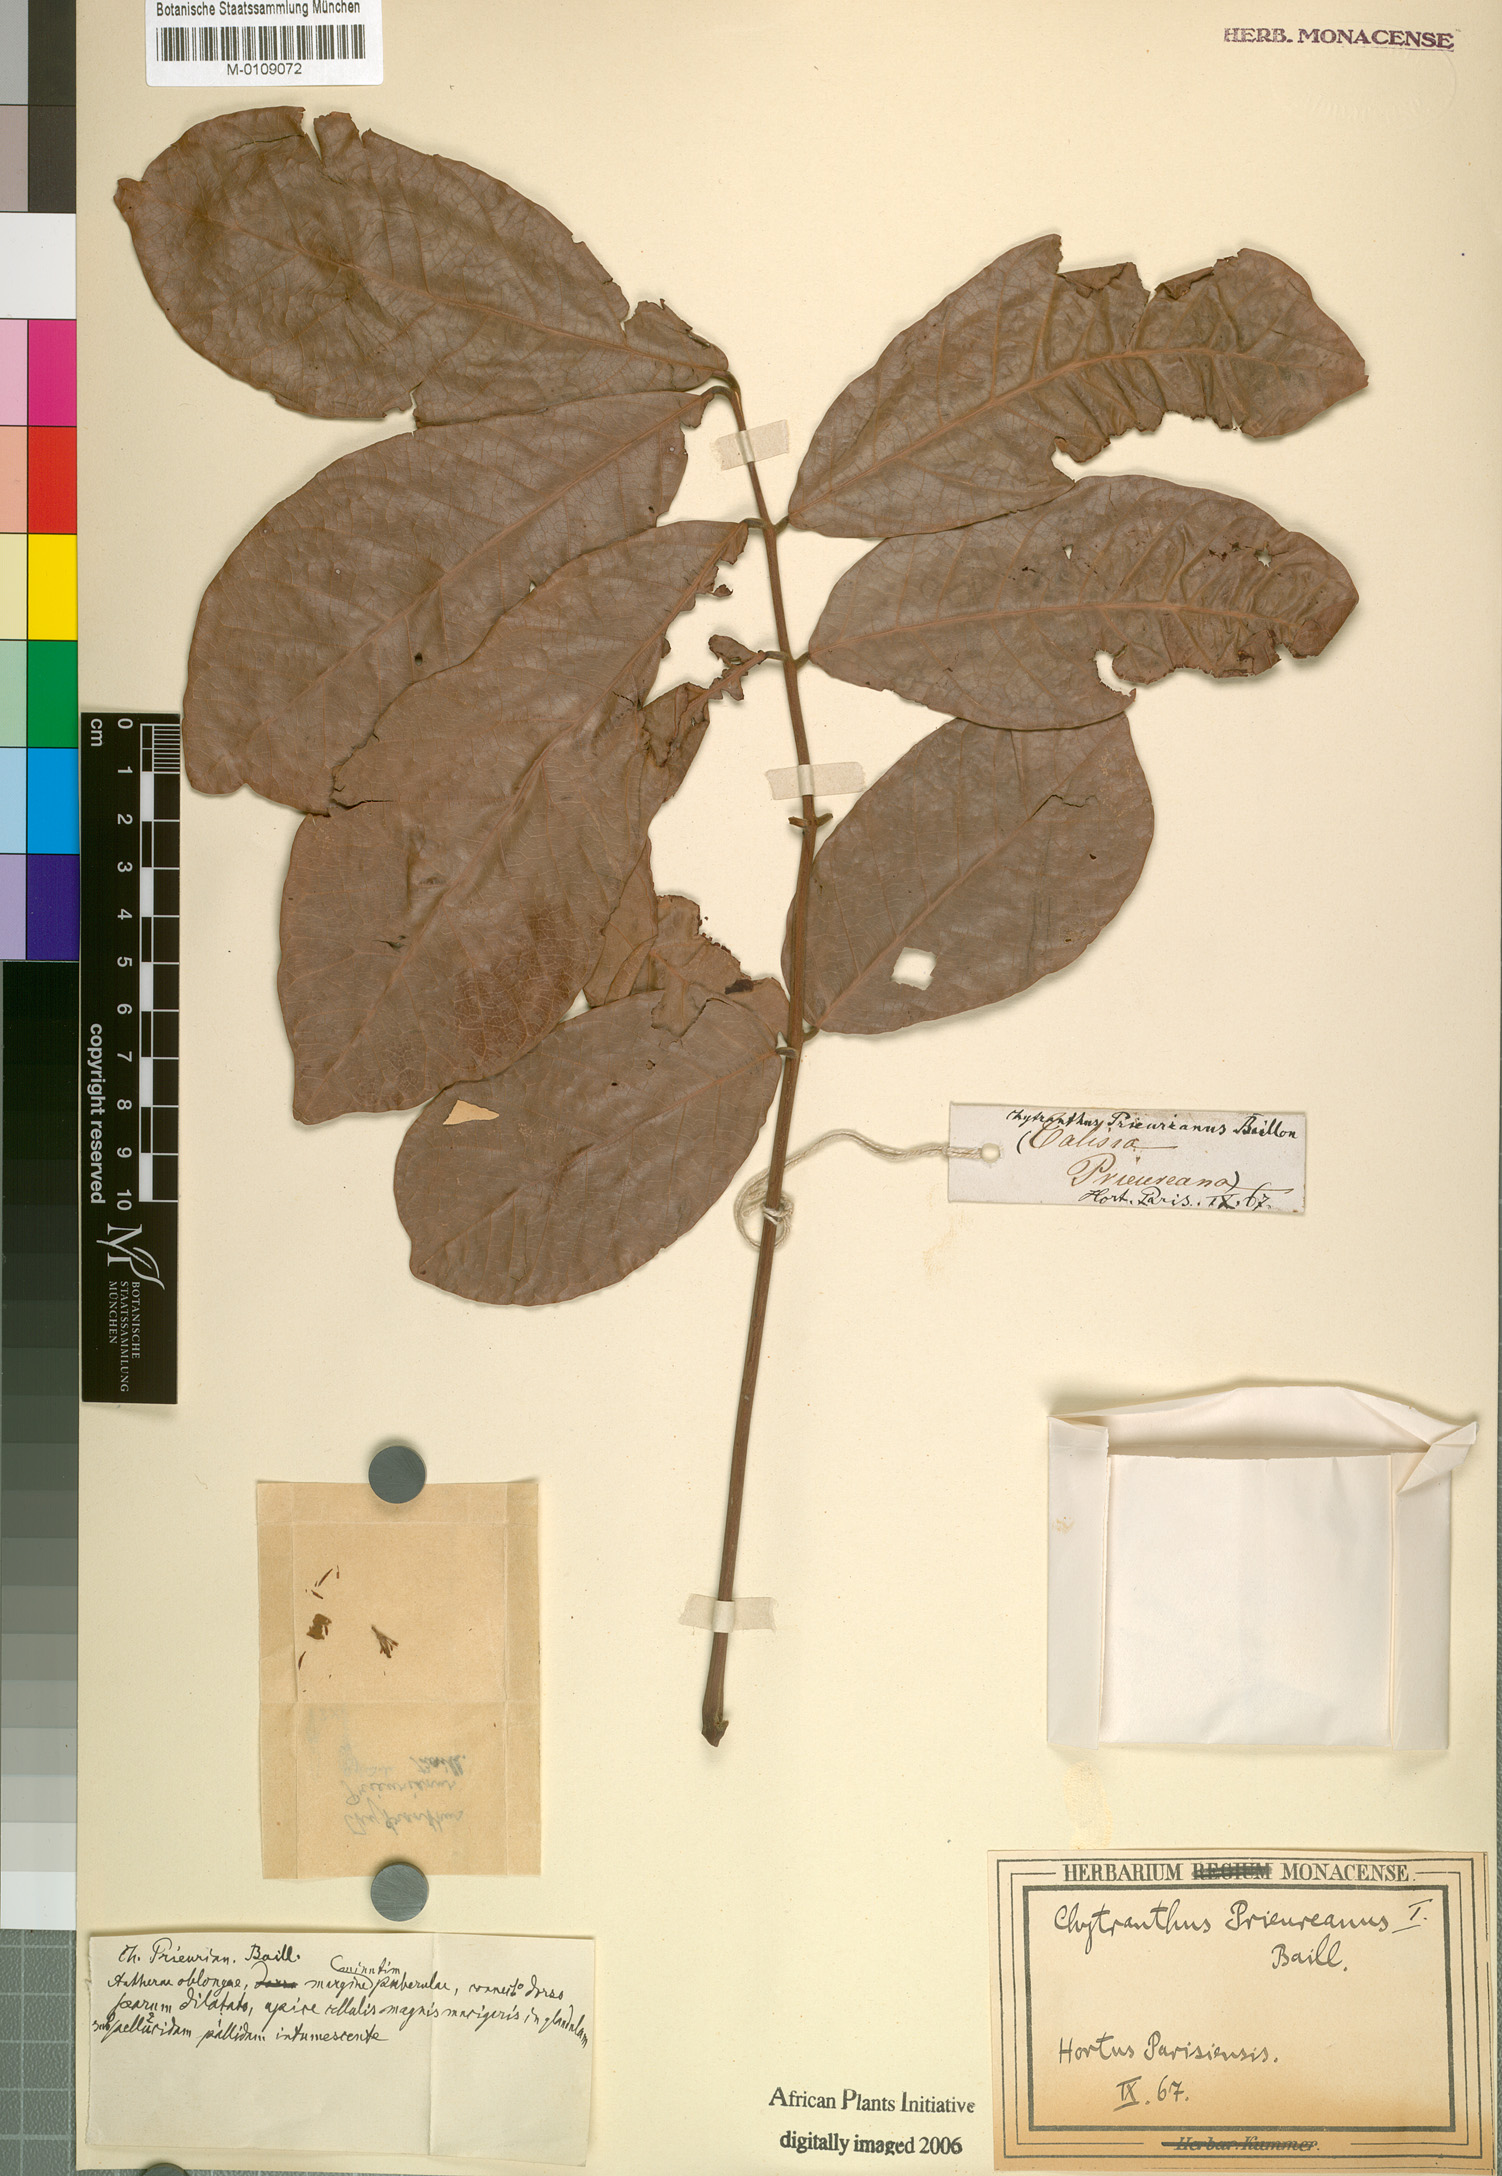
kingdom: Plantae
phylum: Tracheophyta
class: Magnoliopsida
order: Sapindales
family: Sapindaceae
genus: Chytranthus
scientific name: Chytranthus prieurianus
